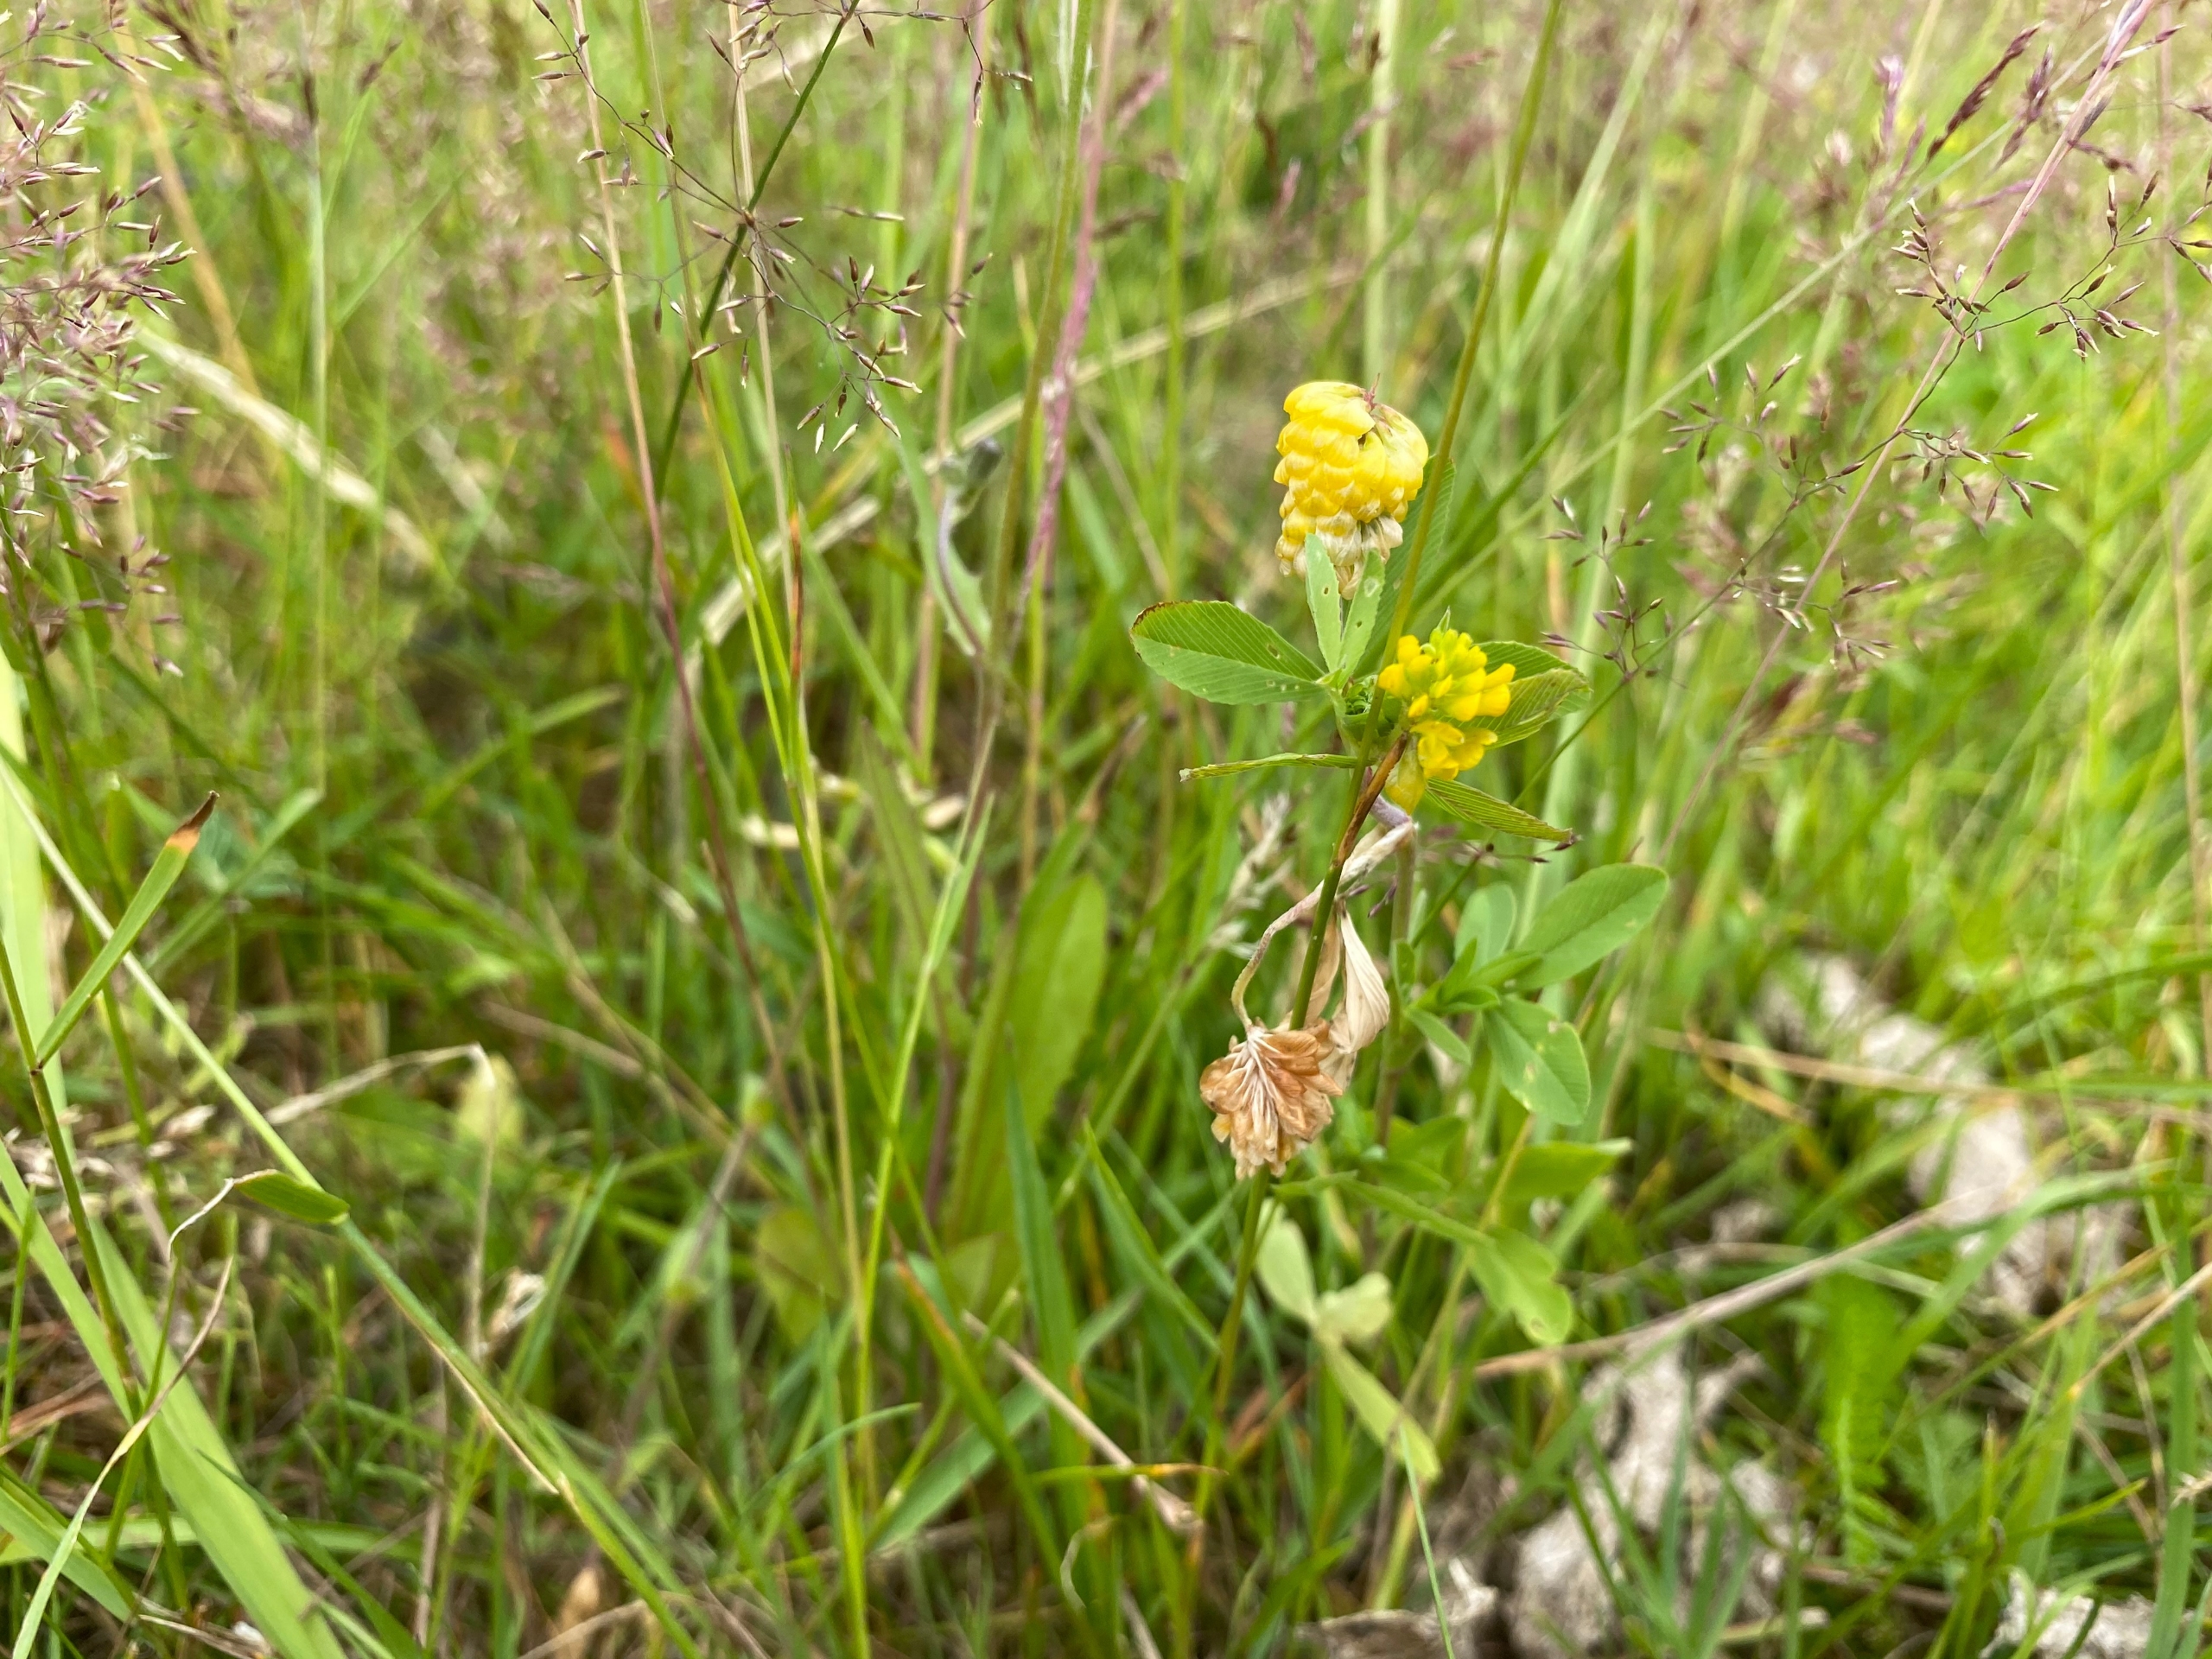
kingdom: Plantae
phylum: Tracheophyta
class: Magnoliopsida
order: Fabales
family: Fabaceae
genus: Trifolium
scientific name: Trifolium aureum
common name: Humle-kløver
